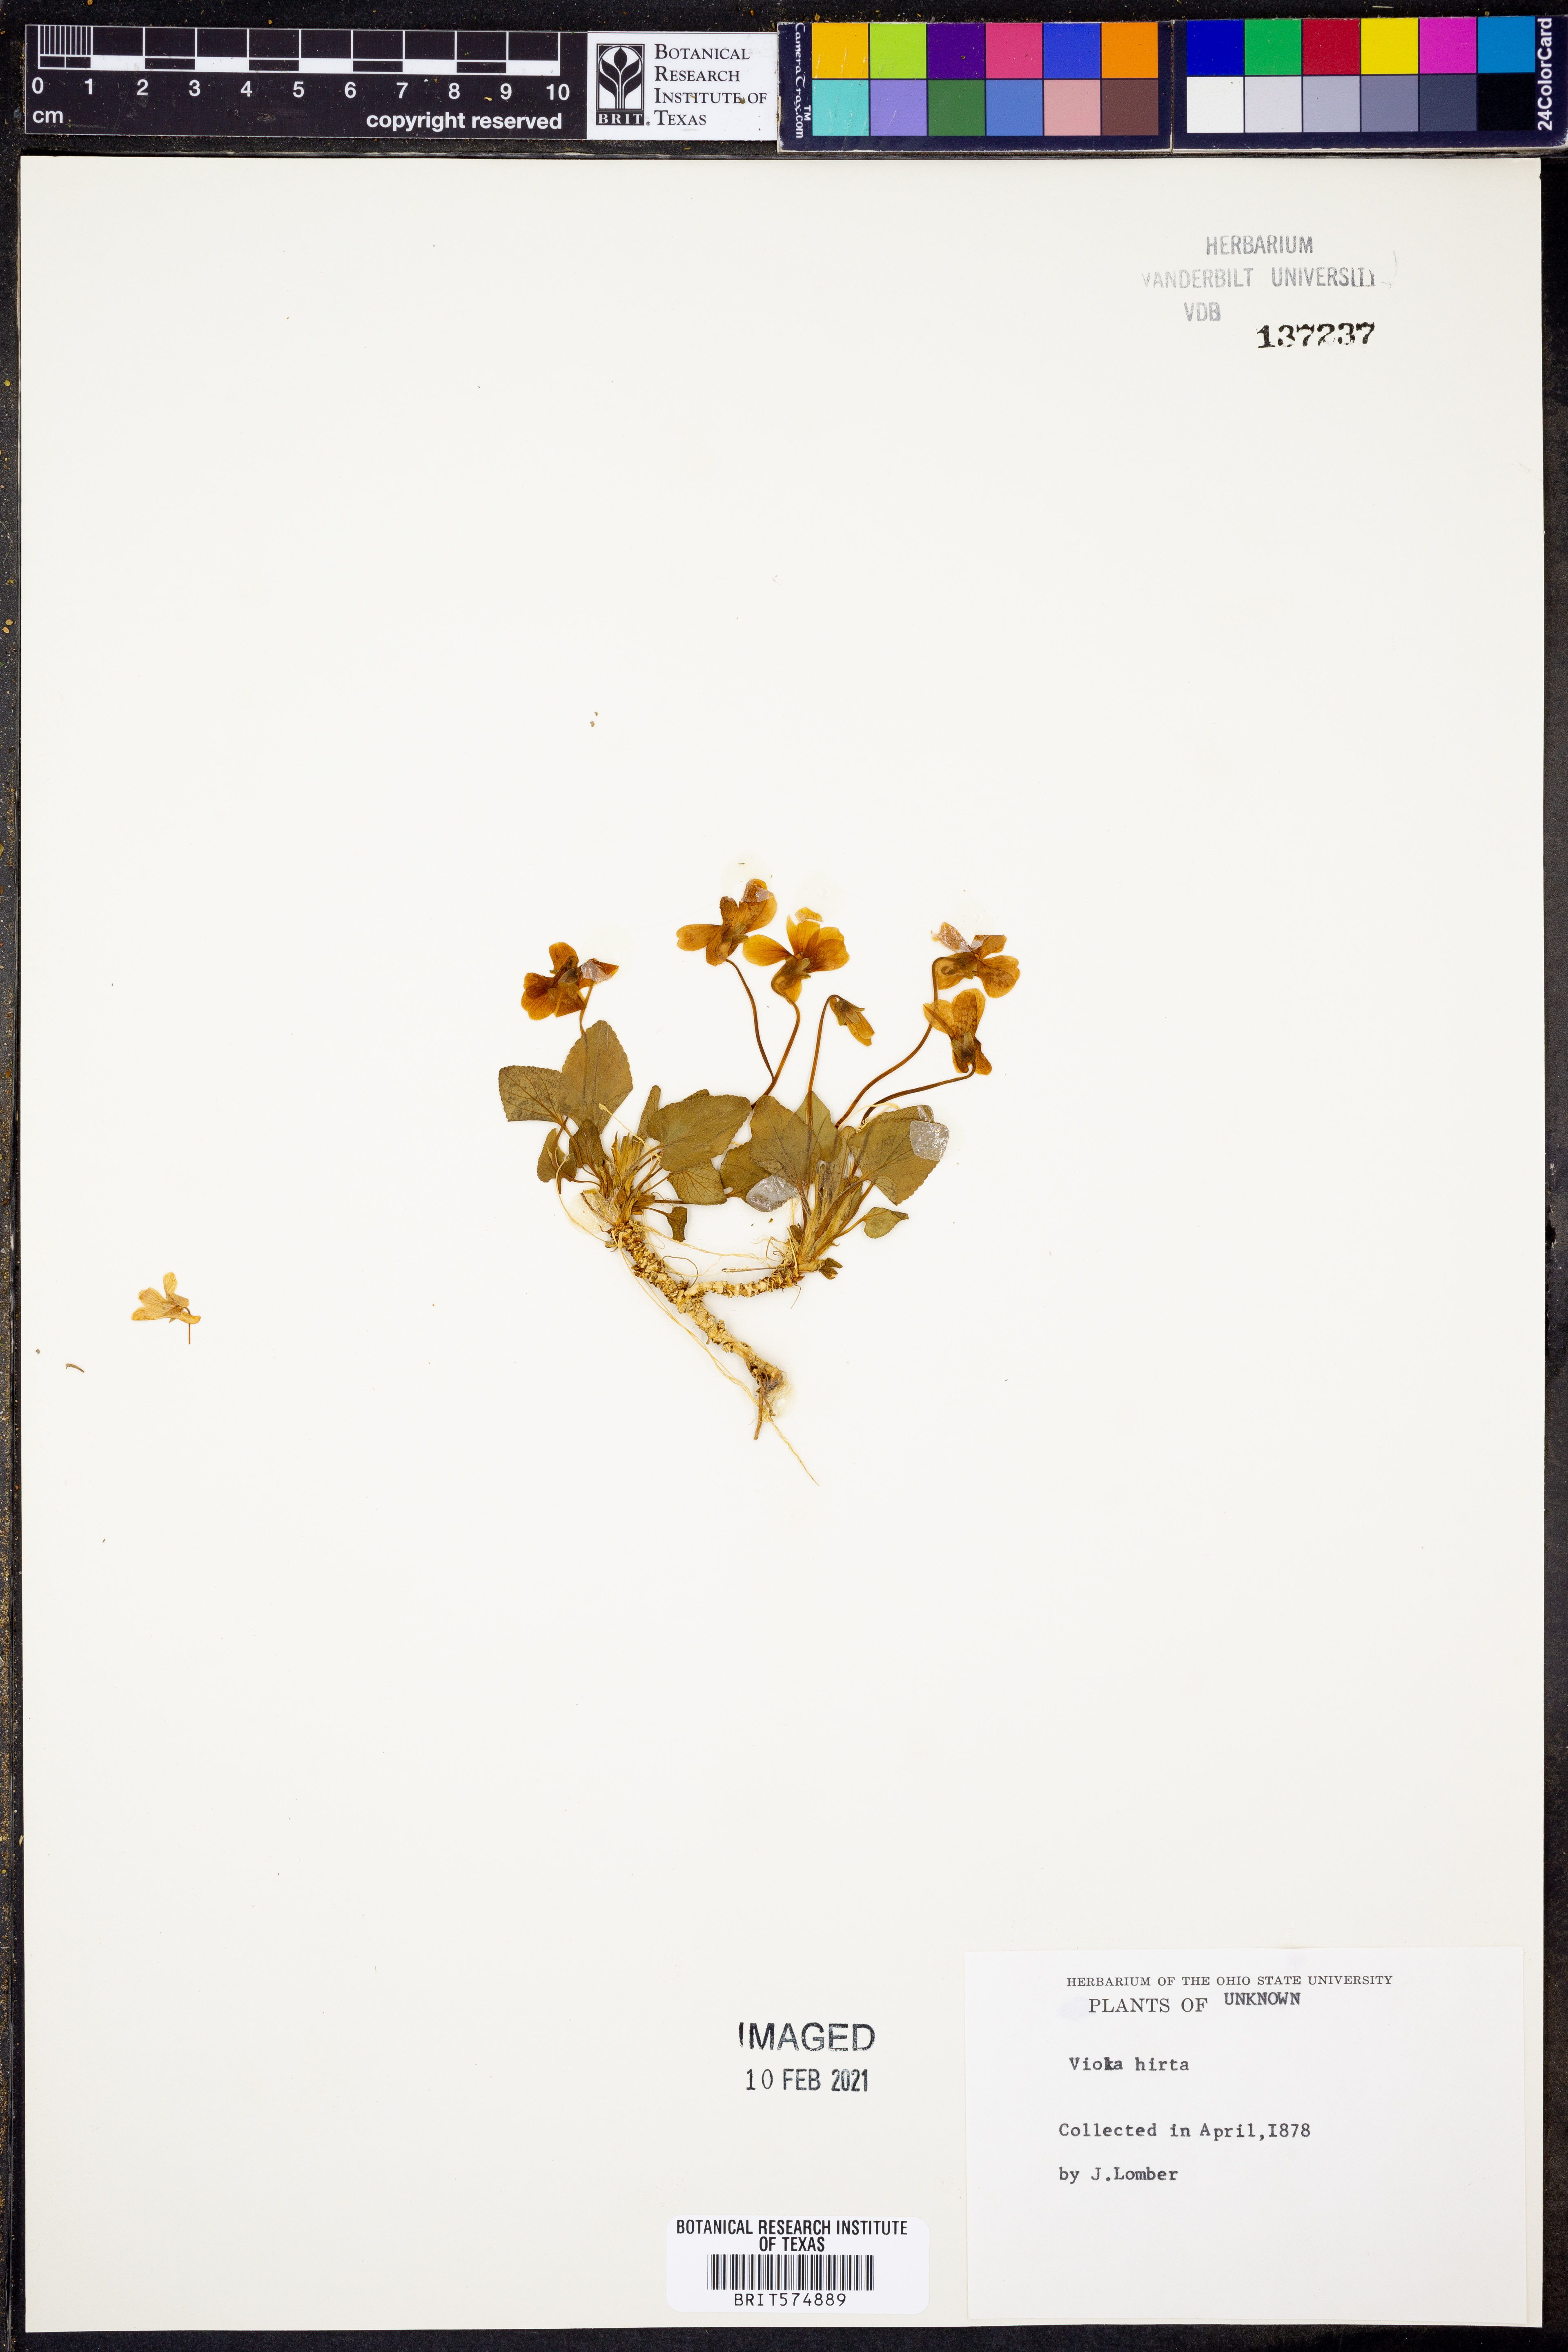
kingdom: Plantae
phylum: Tracheophyta
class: Magnoliopsida
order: Malpighiales
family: Violaceae
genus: Viola
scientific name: Viola hirta
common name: Hairy violet
